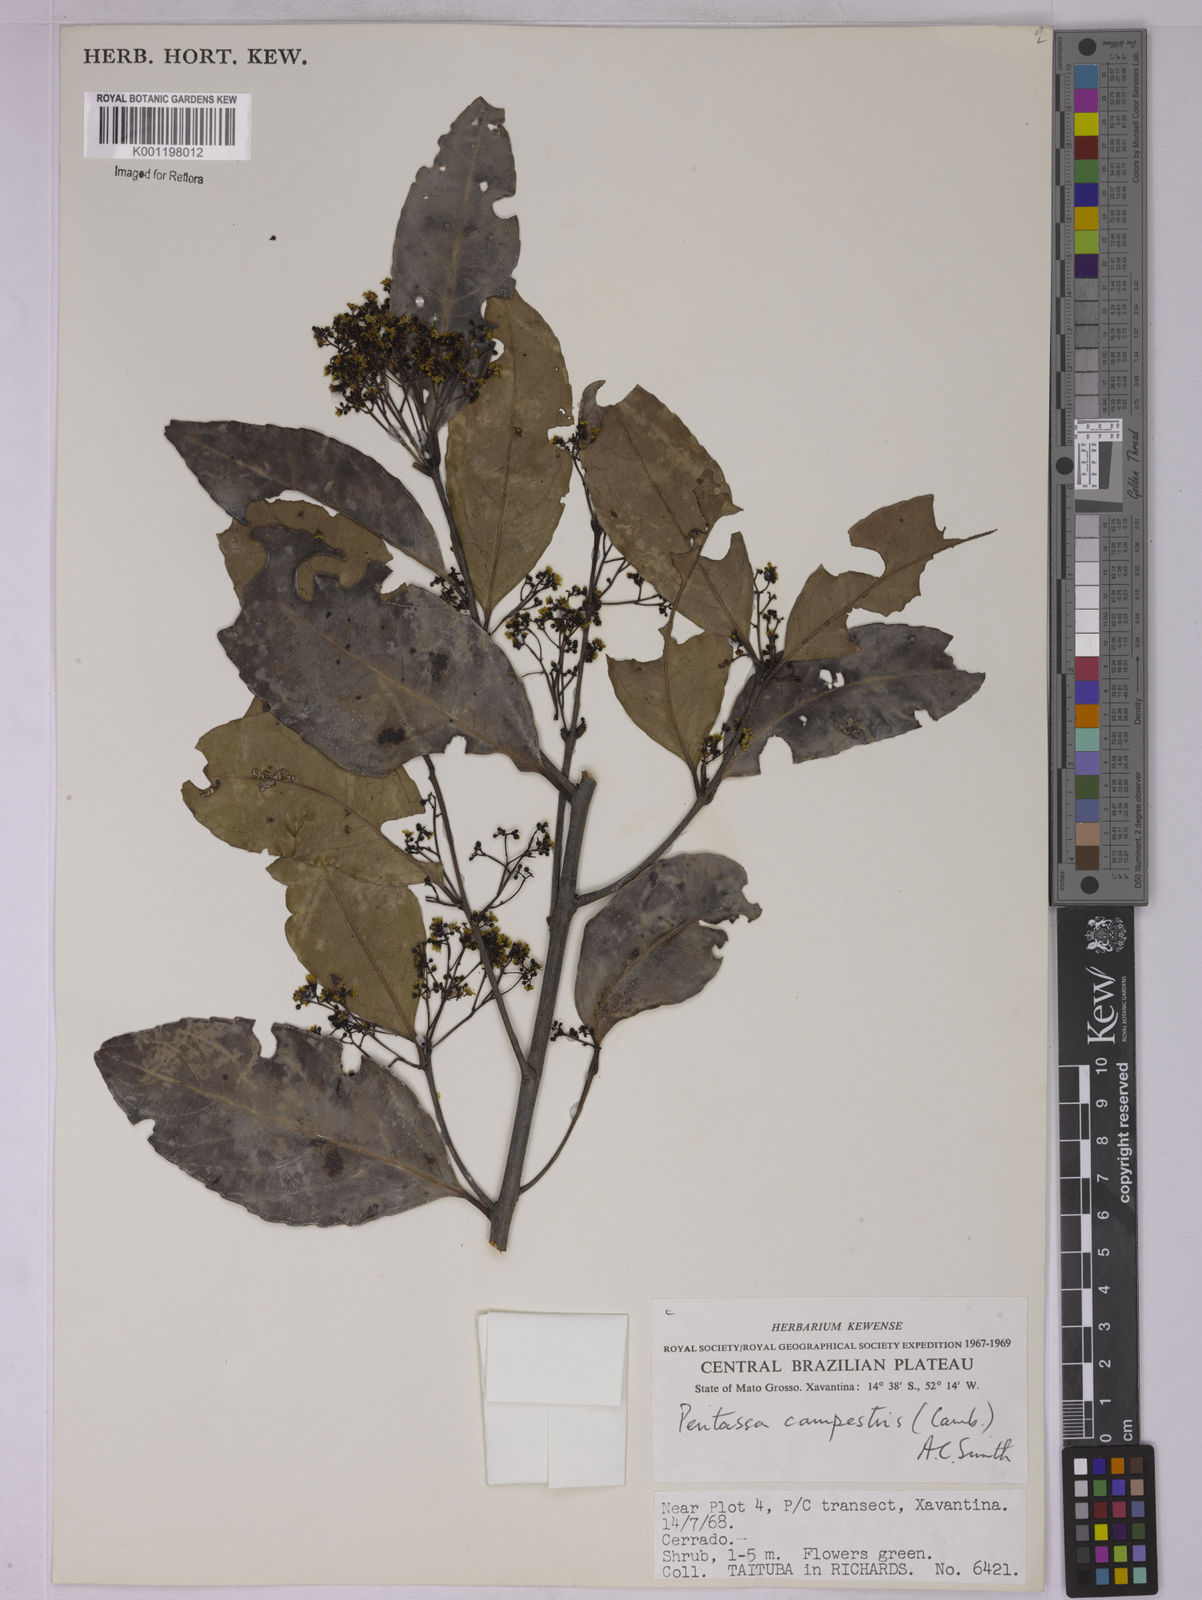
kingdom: Plantae
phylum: Tracheophyta
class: Magnoliopsida
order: Celastrales
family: Celastraceae
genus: Peritassa
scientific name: Peritassa campestris
